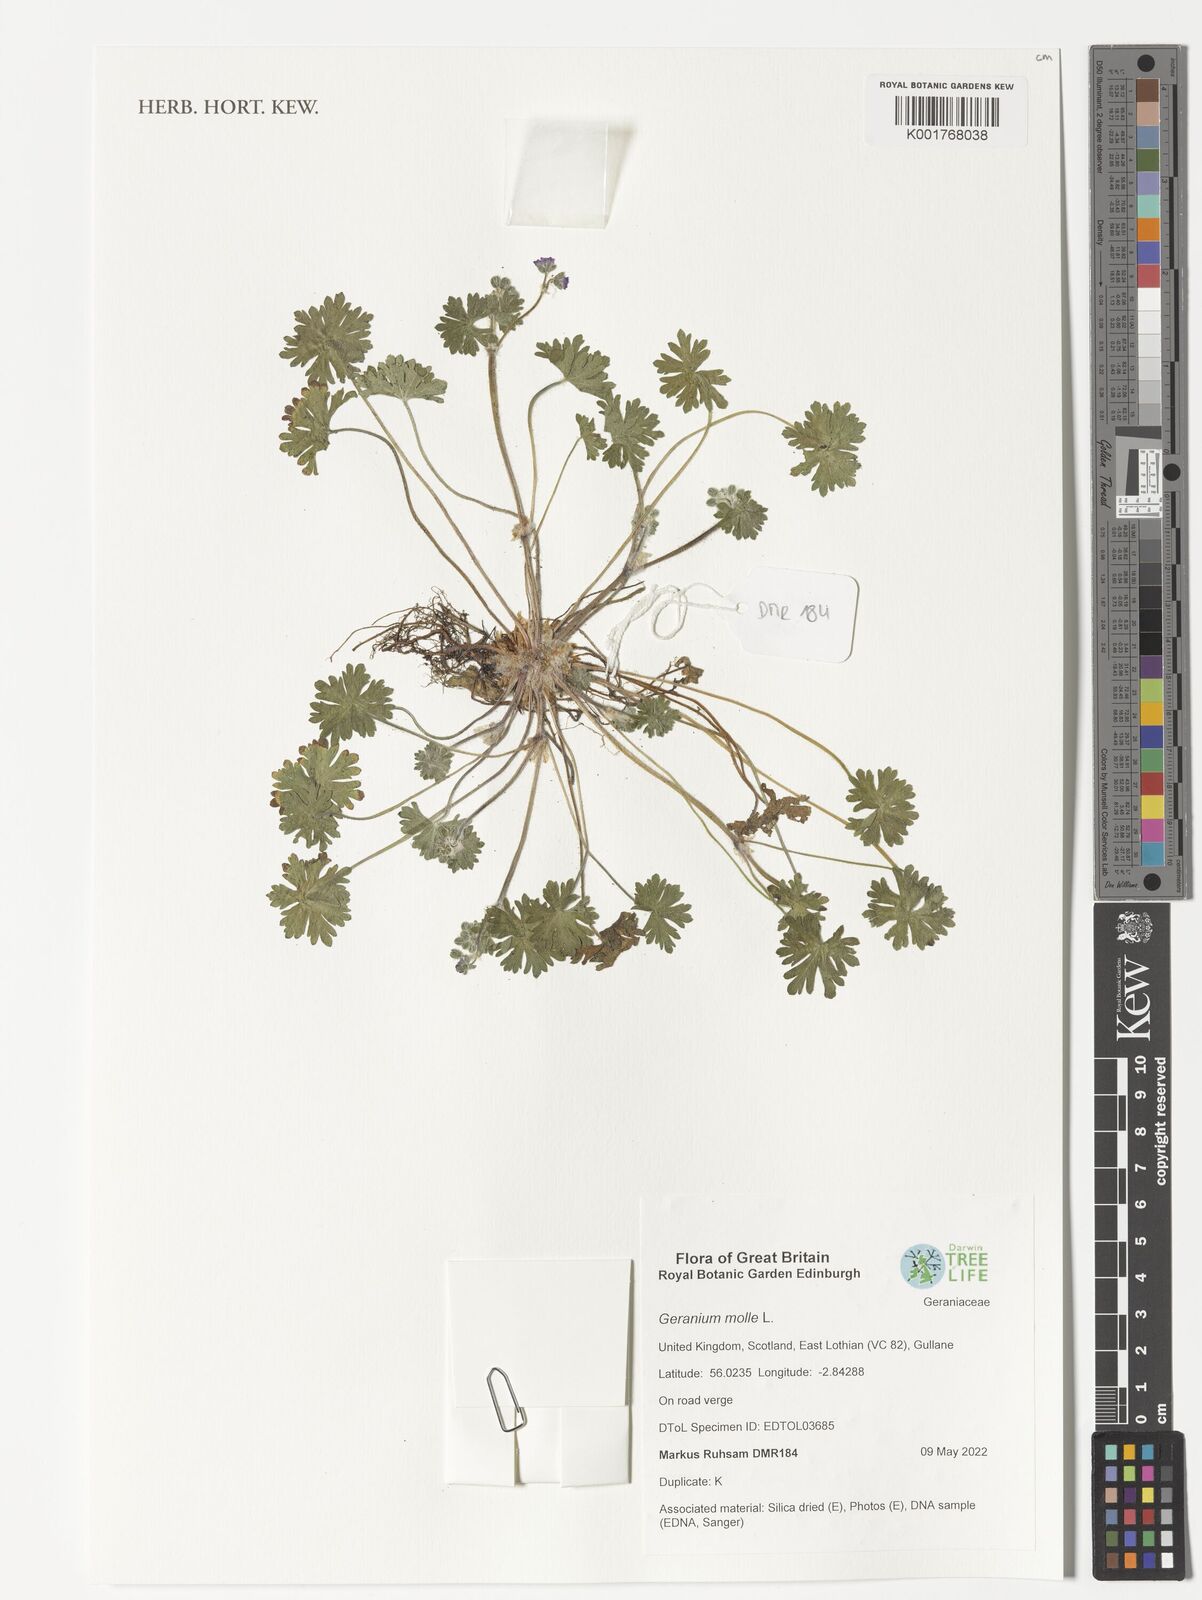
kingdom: Plantae
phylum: Tracheophyta
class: Magnoliopsida
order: Geraniales
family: Geraniaceae
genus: Geranium
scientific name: Geranium molle
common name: Dove's-foot crane's-bill
